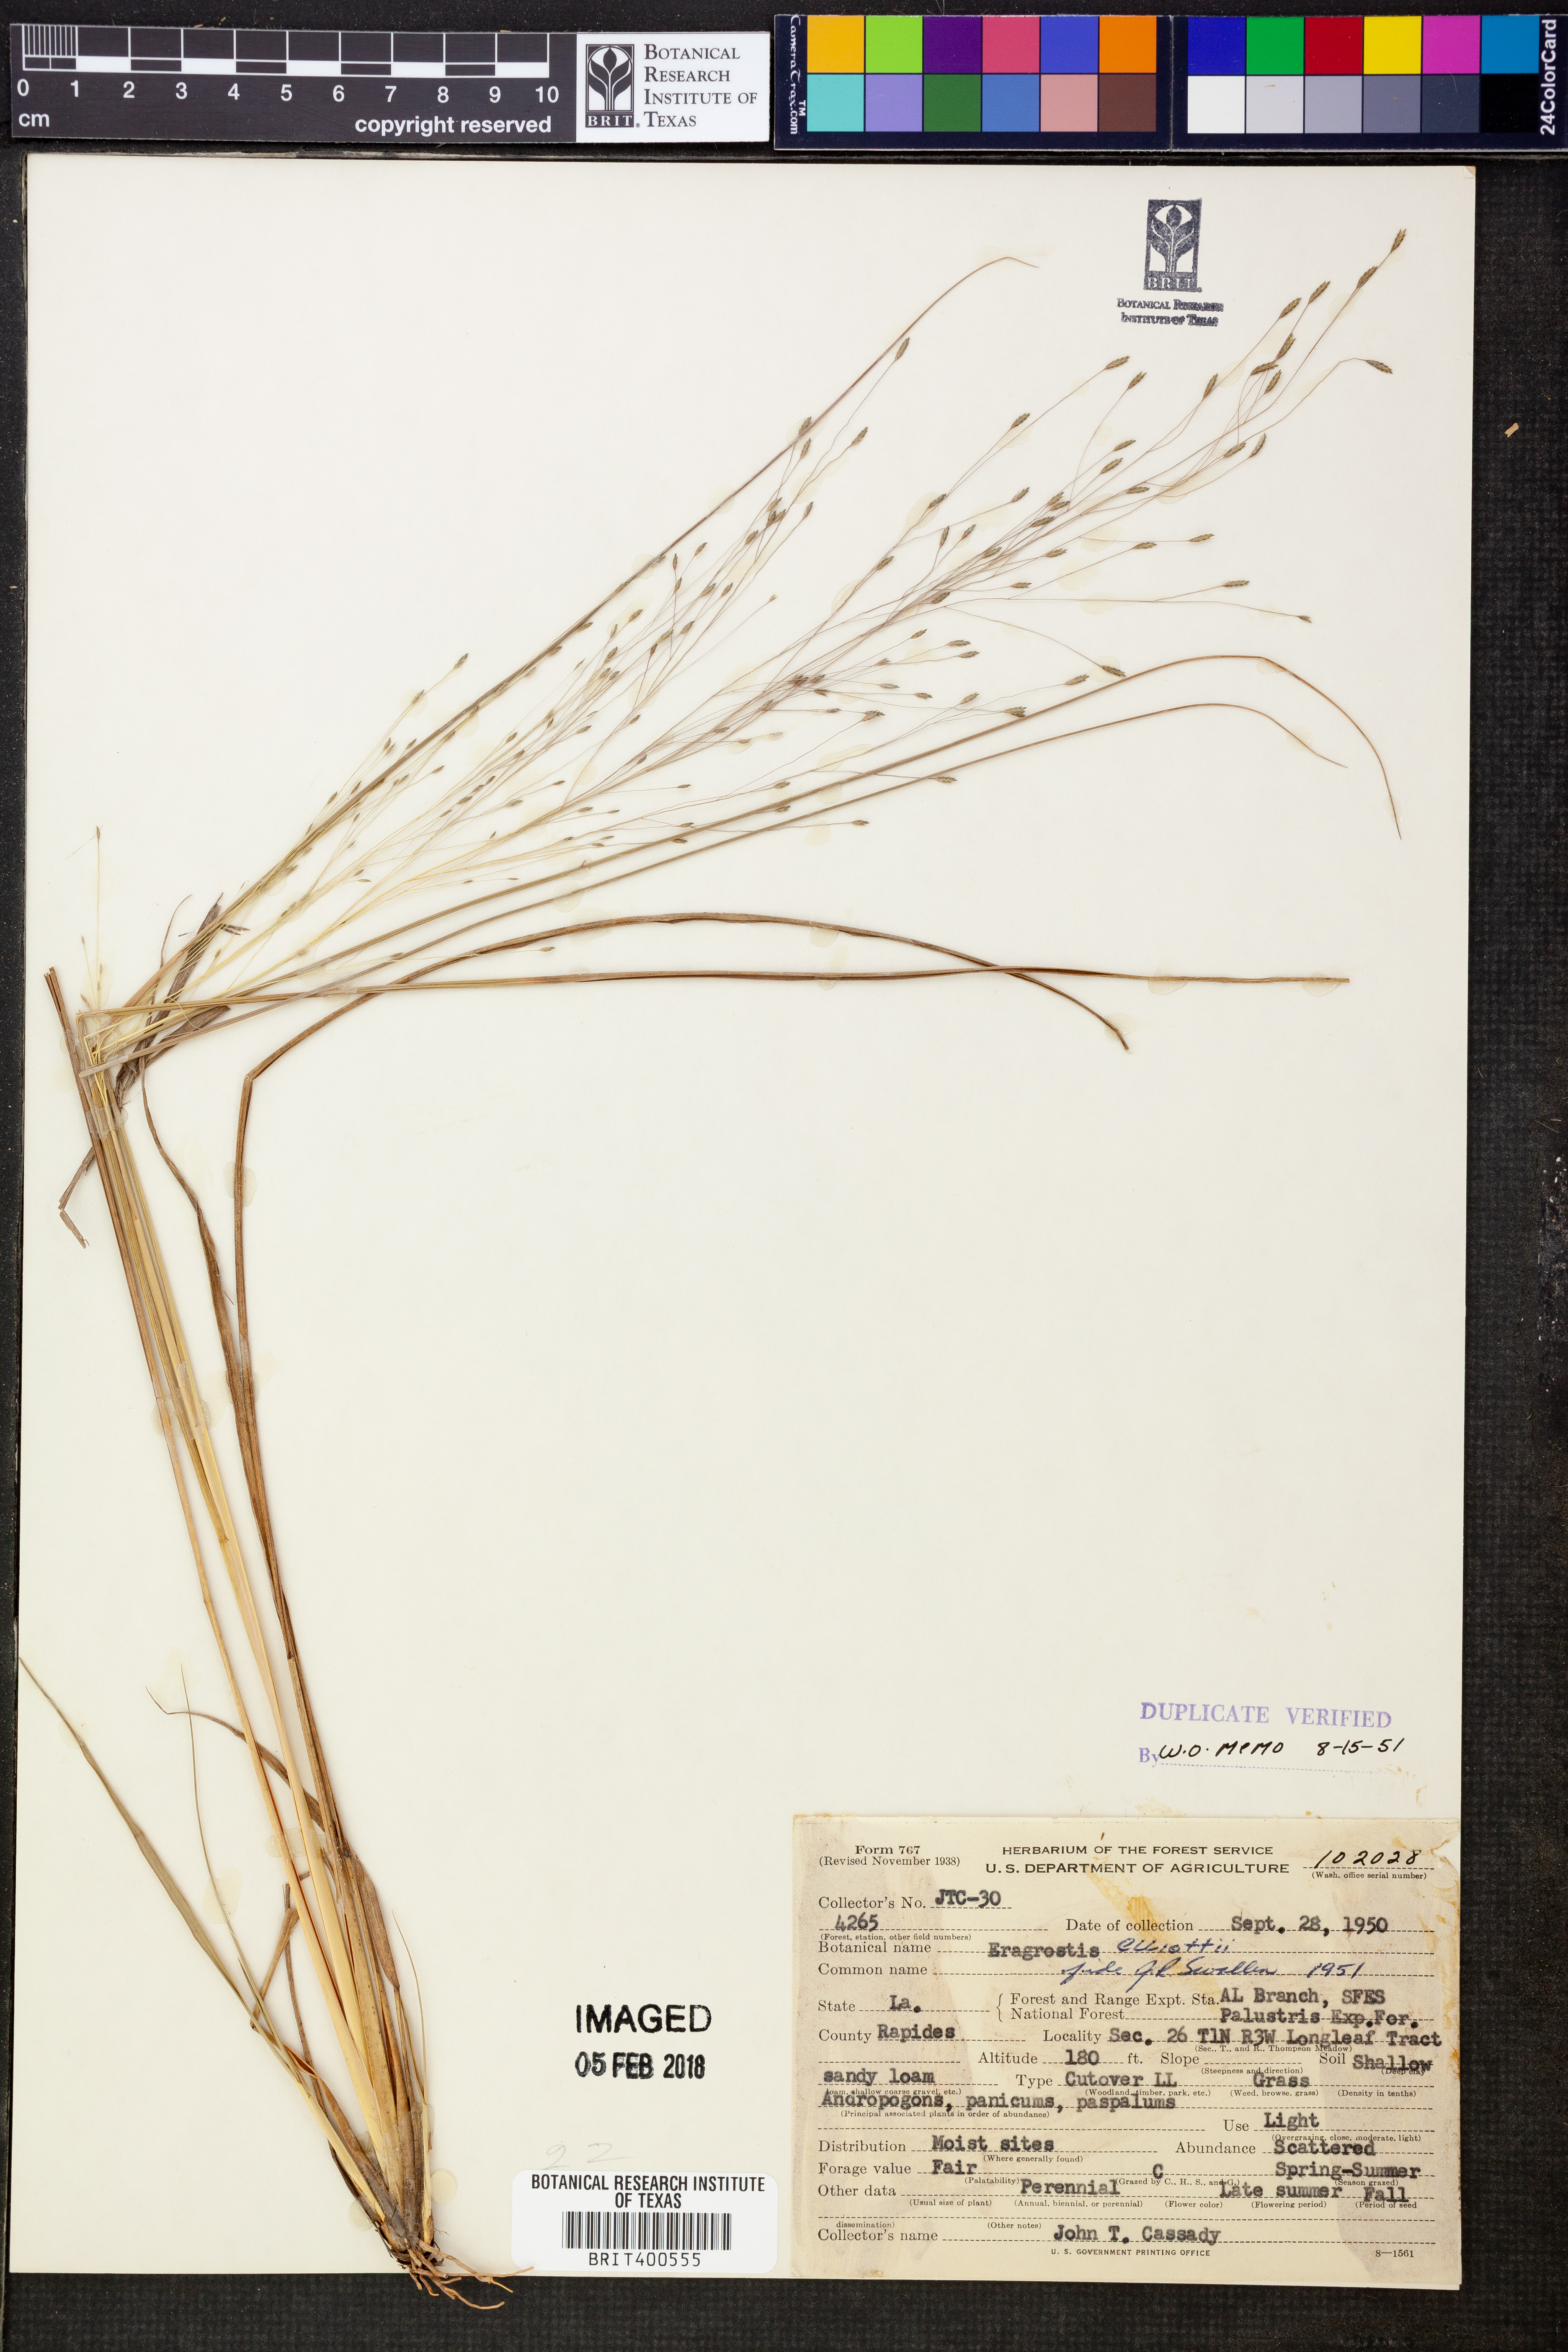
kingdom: Plantae
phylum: Tracheophyta
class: Liliopsida
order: Poales
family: Poaceae
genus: Eragrostis
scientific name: Eragrostis elliottii
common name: Elliott's love grass
